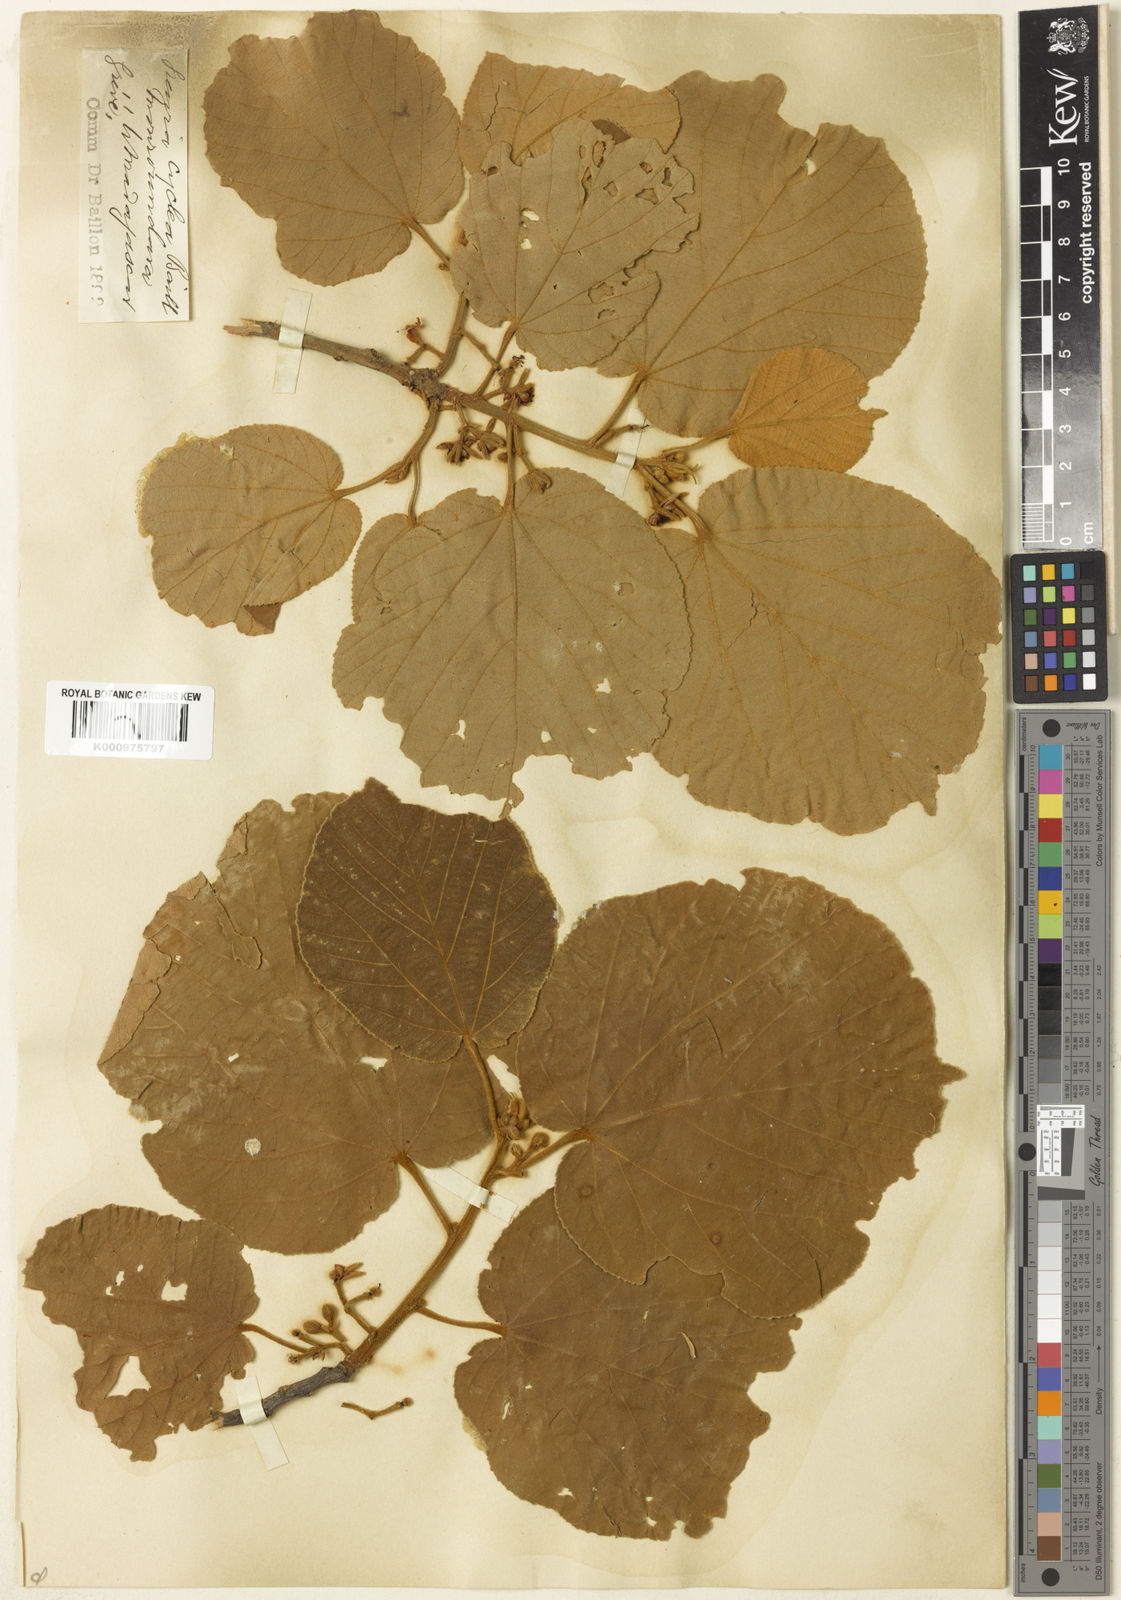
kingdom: Plantae
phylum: Tracheophyta
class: Magnoliopsida
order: Malvales
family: Malvaceae
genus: Grewia
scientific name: Grewia cyclea
